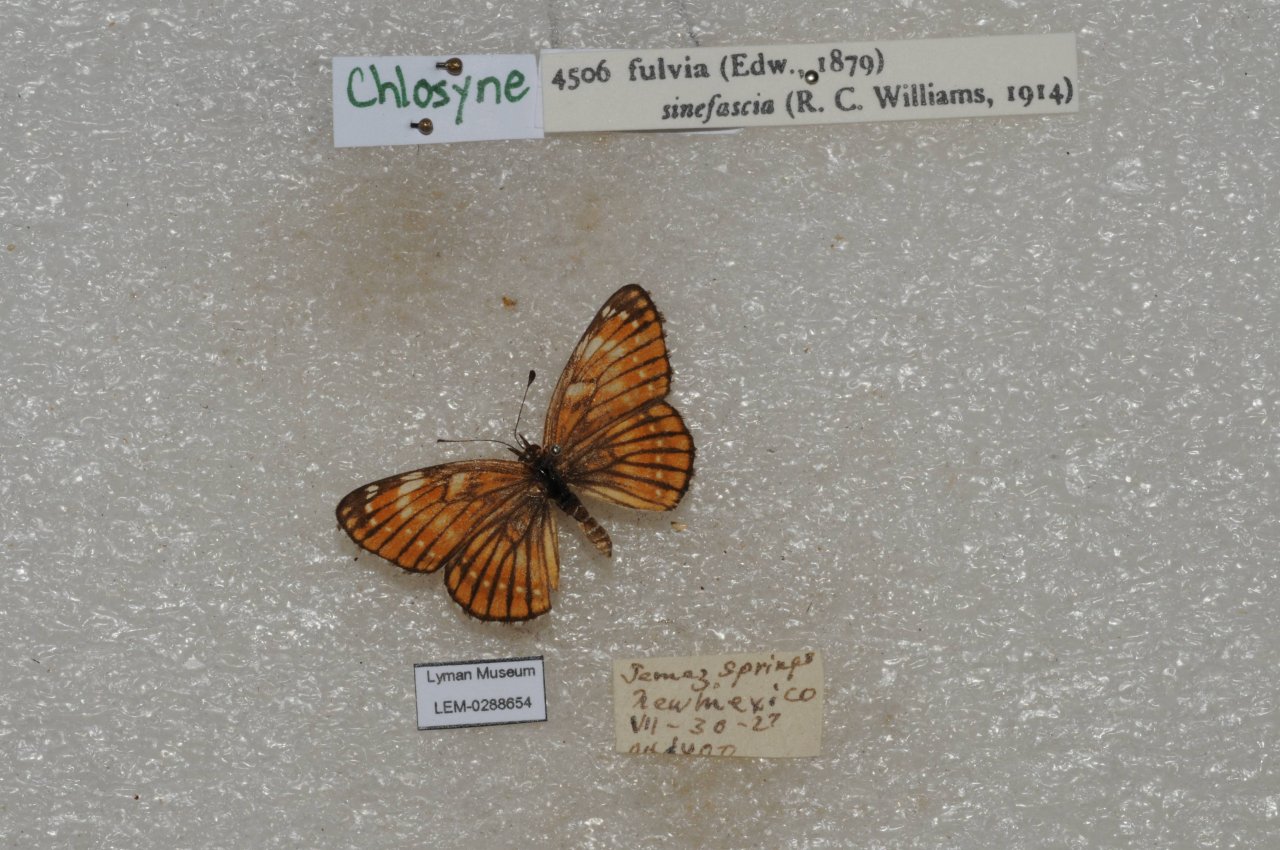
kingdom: Animalia
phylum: Arthropoda
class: Insecta
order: Lepidoptera
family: Nymphalidae
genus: Thessalia
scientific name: Thessalia leanira
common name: Fulvia Checkerspot
